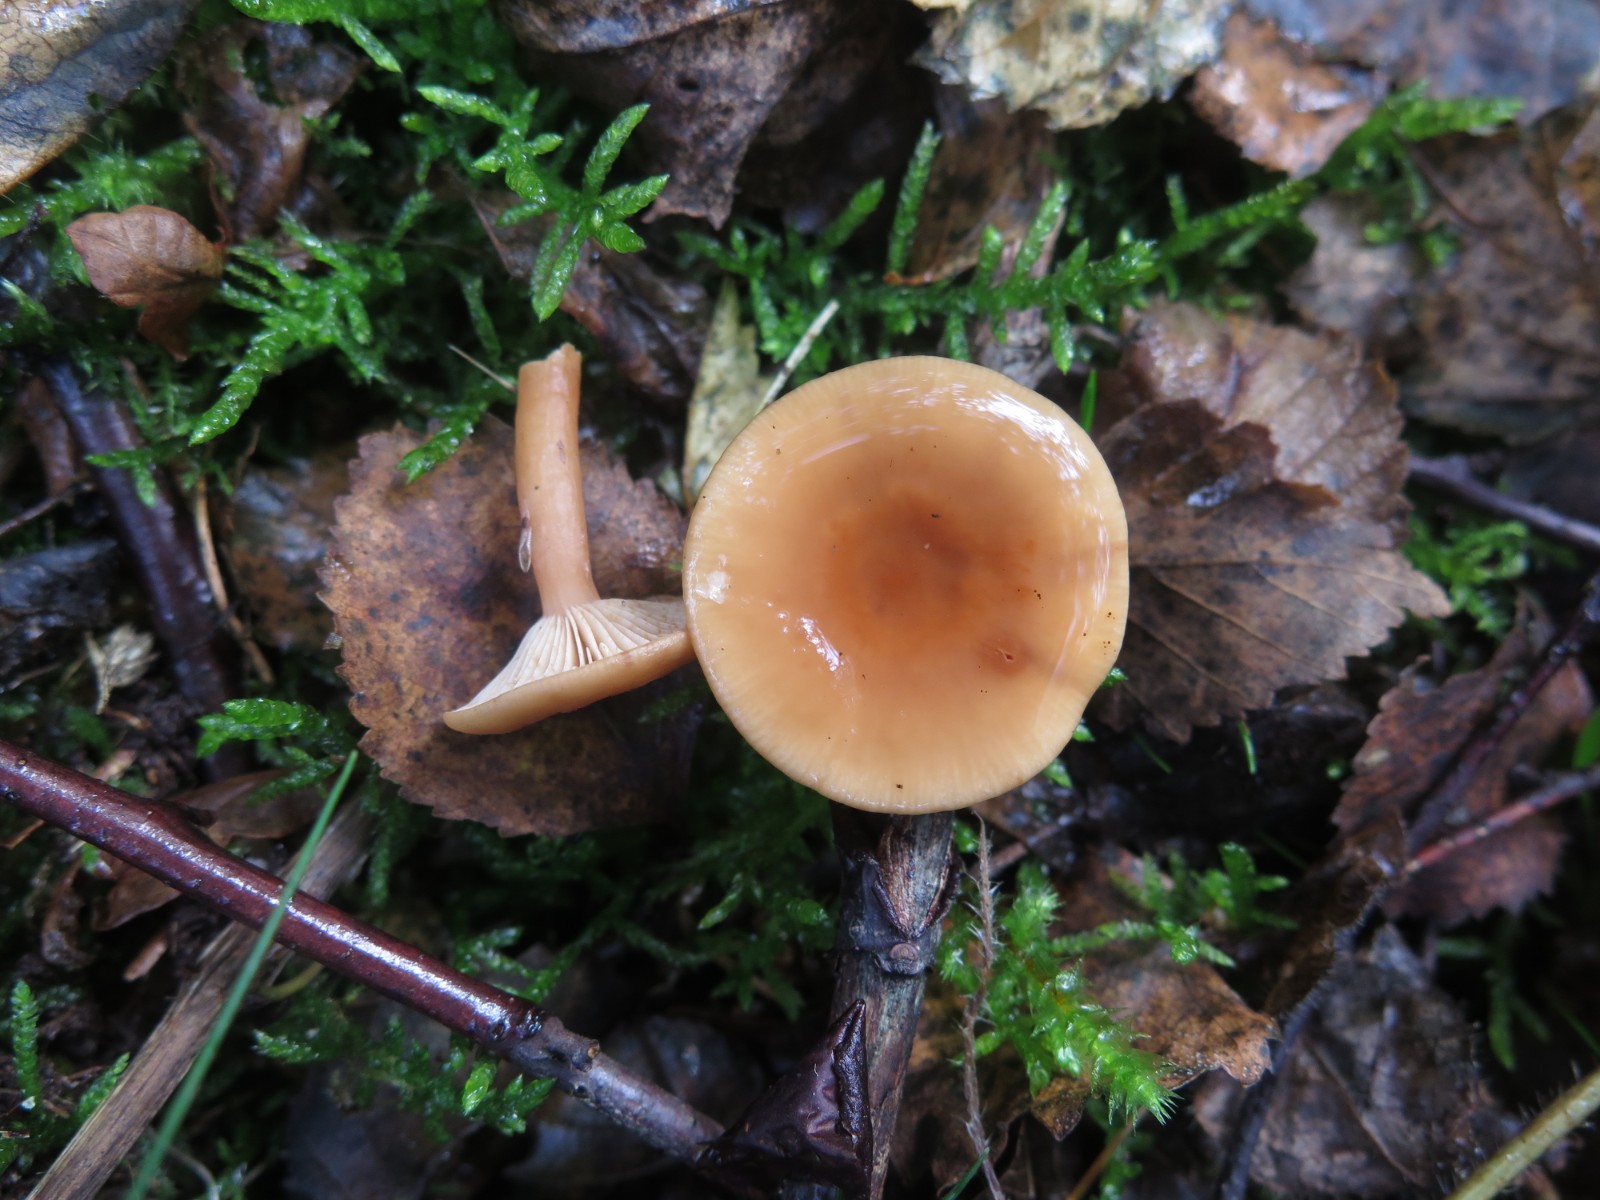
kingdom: Fungi
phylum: Basidiomycota
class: Agaricomycetes
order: Russulales
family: Russulaceae
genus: Lactarius
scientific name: Lactarius tabidus
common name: rynket mælkehat
